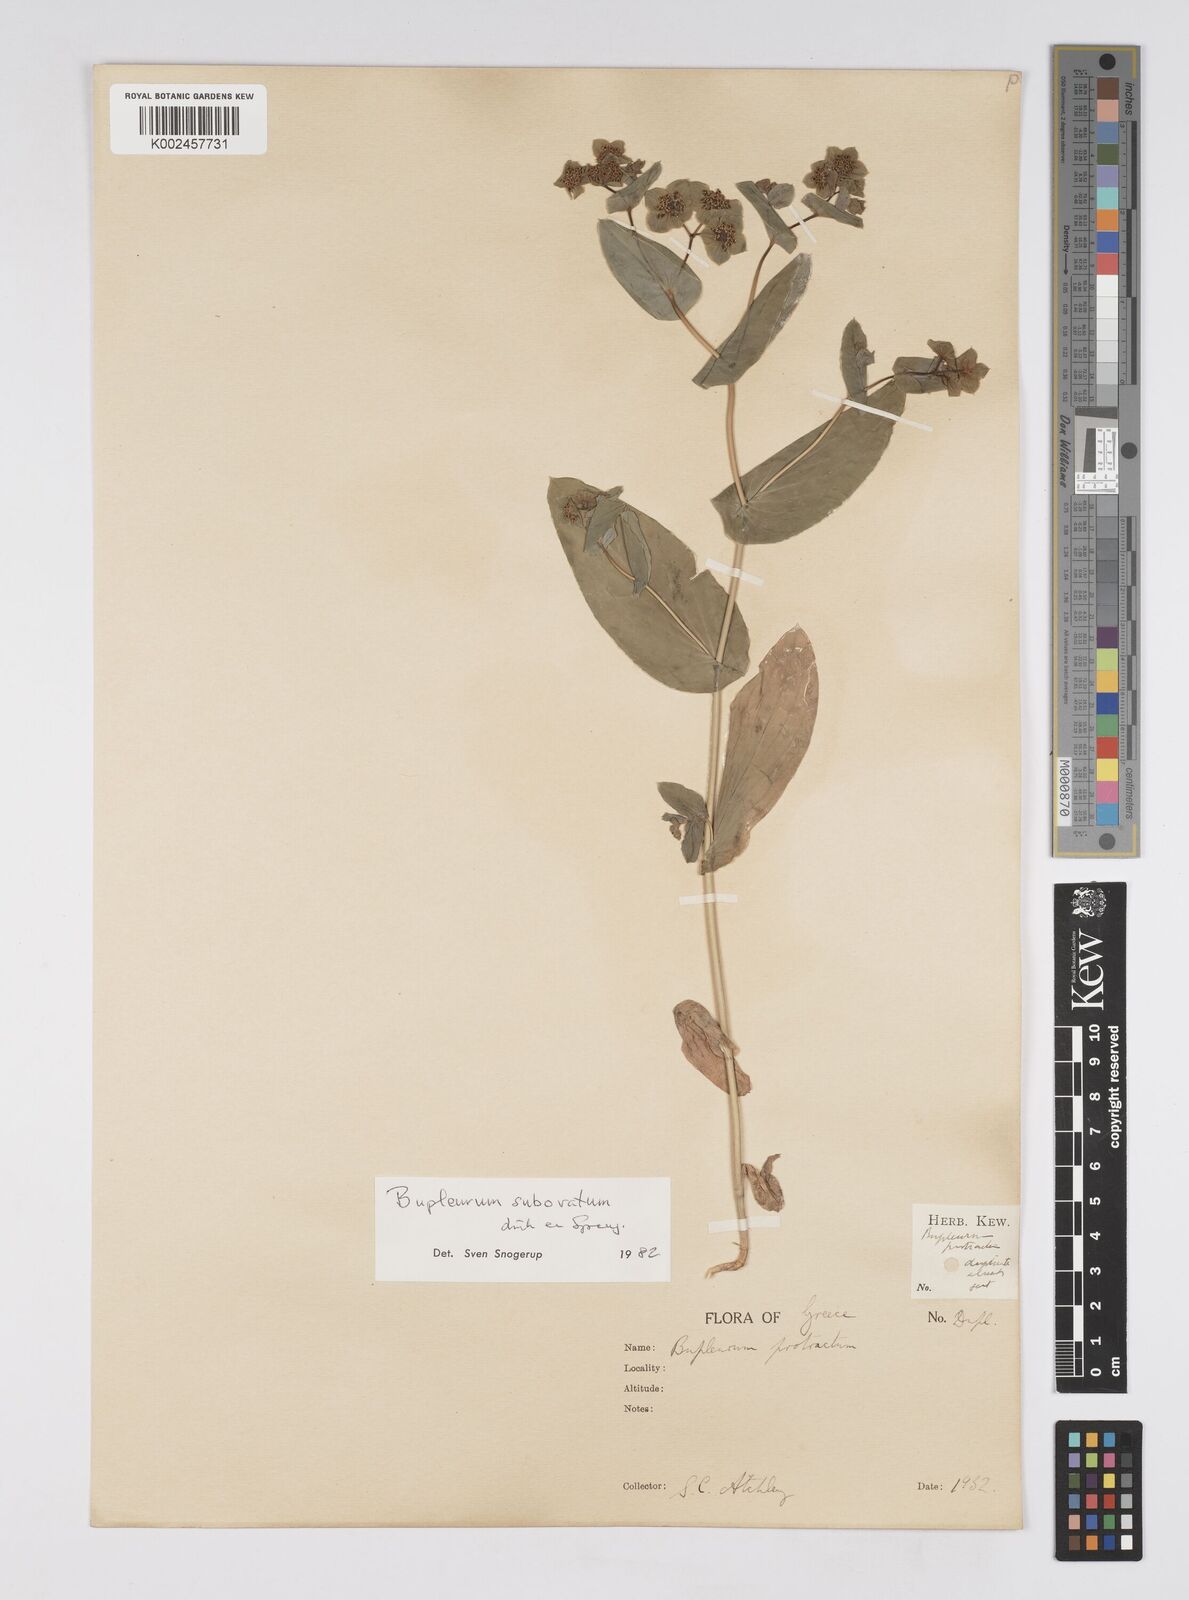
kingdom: Plantae
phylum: Tracheophyta
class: Magnoliopsida
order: Apiales
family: Apiaceae
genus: Bupleurum
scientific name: Bupleurum subovatum
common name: False thorow-wax
